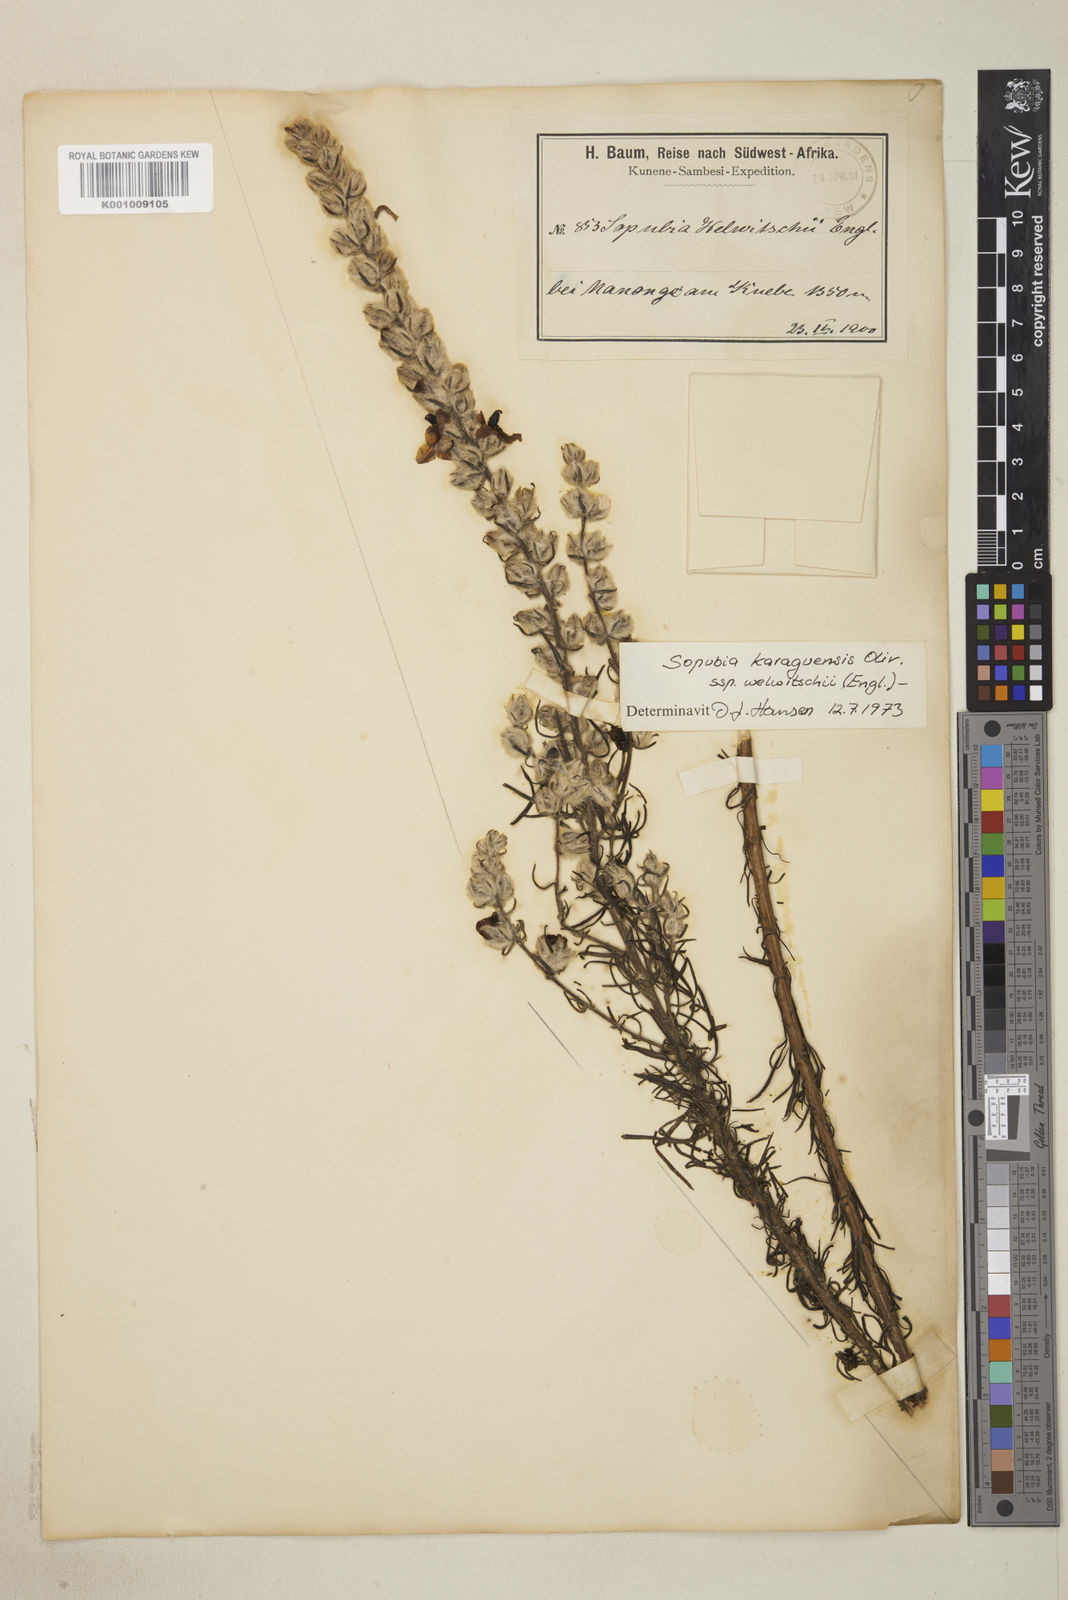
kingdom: Plantae
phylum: Tracheophyta
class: Magnoliopsida
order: Lamiales
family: Orobanchaceae
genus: Sopubia
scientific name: Sopubia karaguensis
